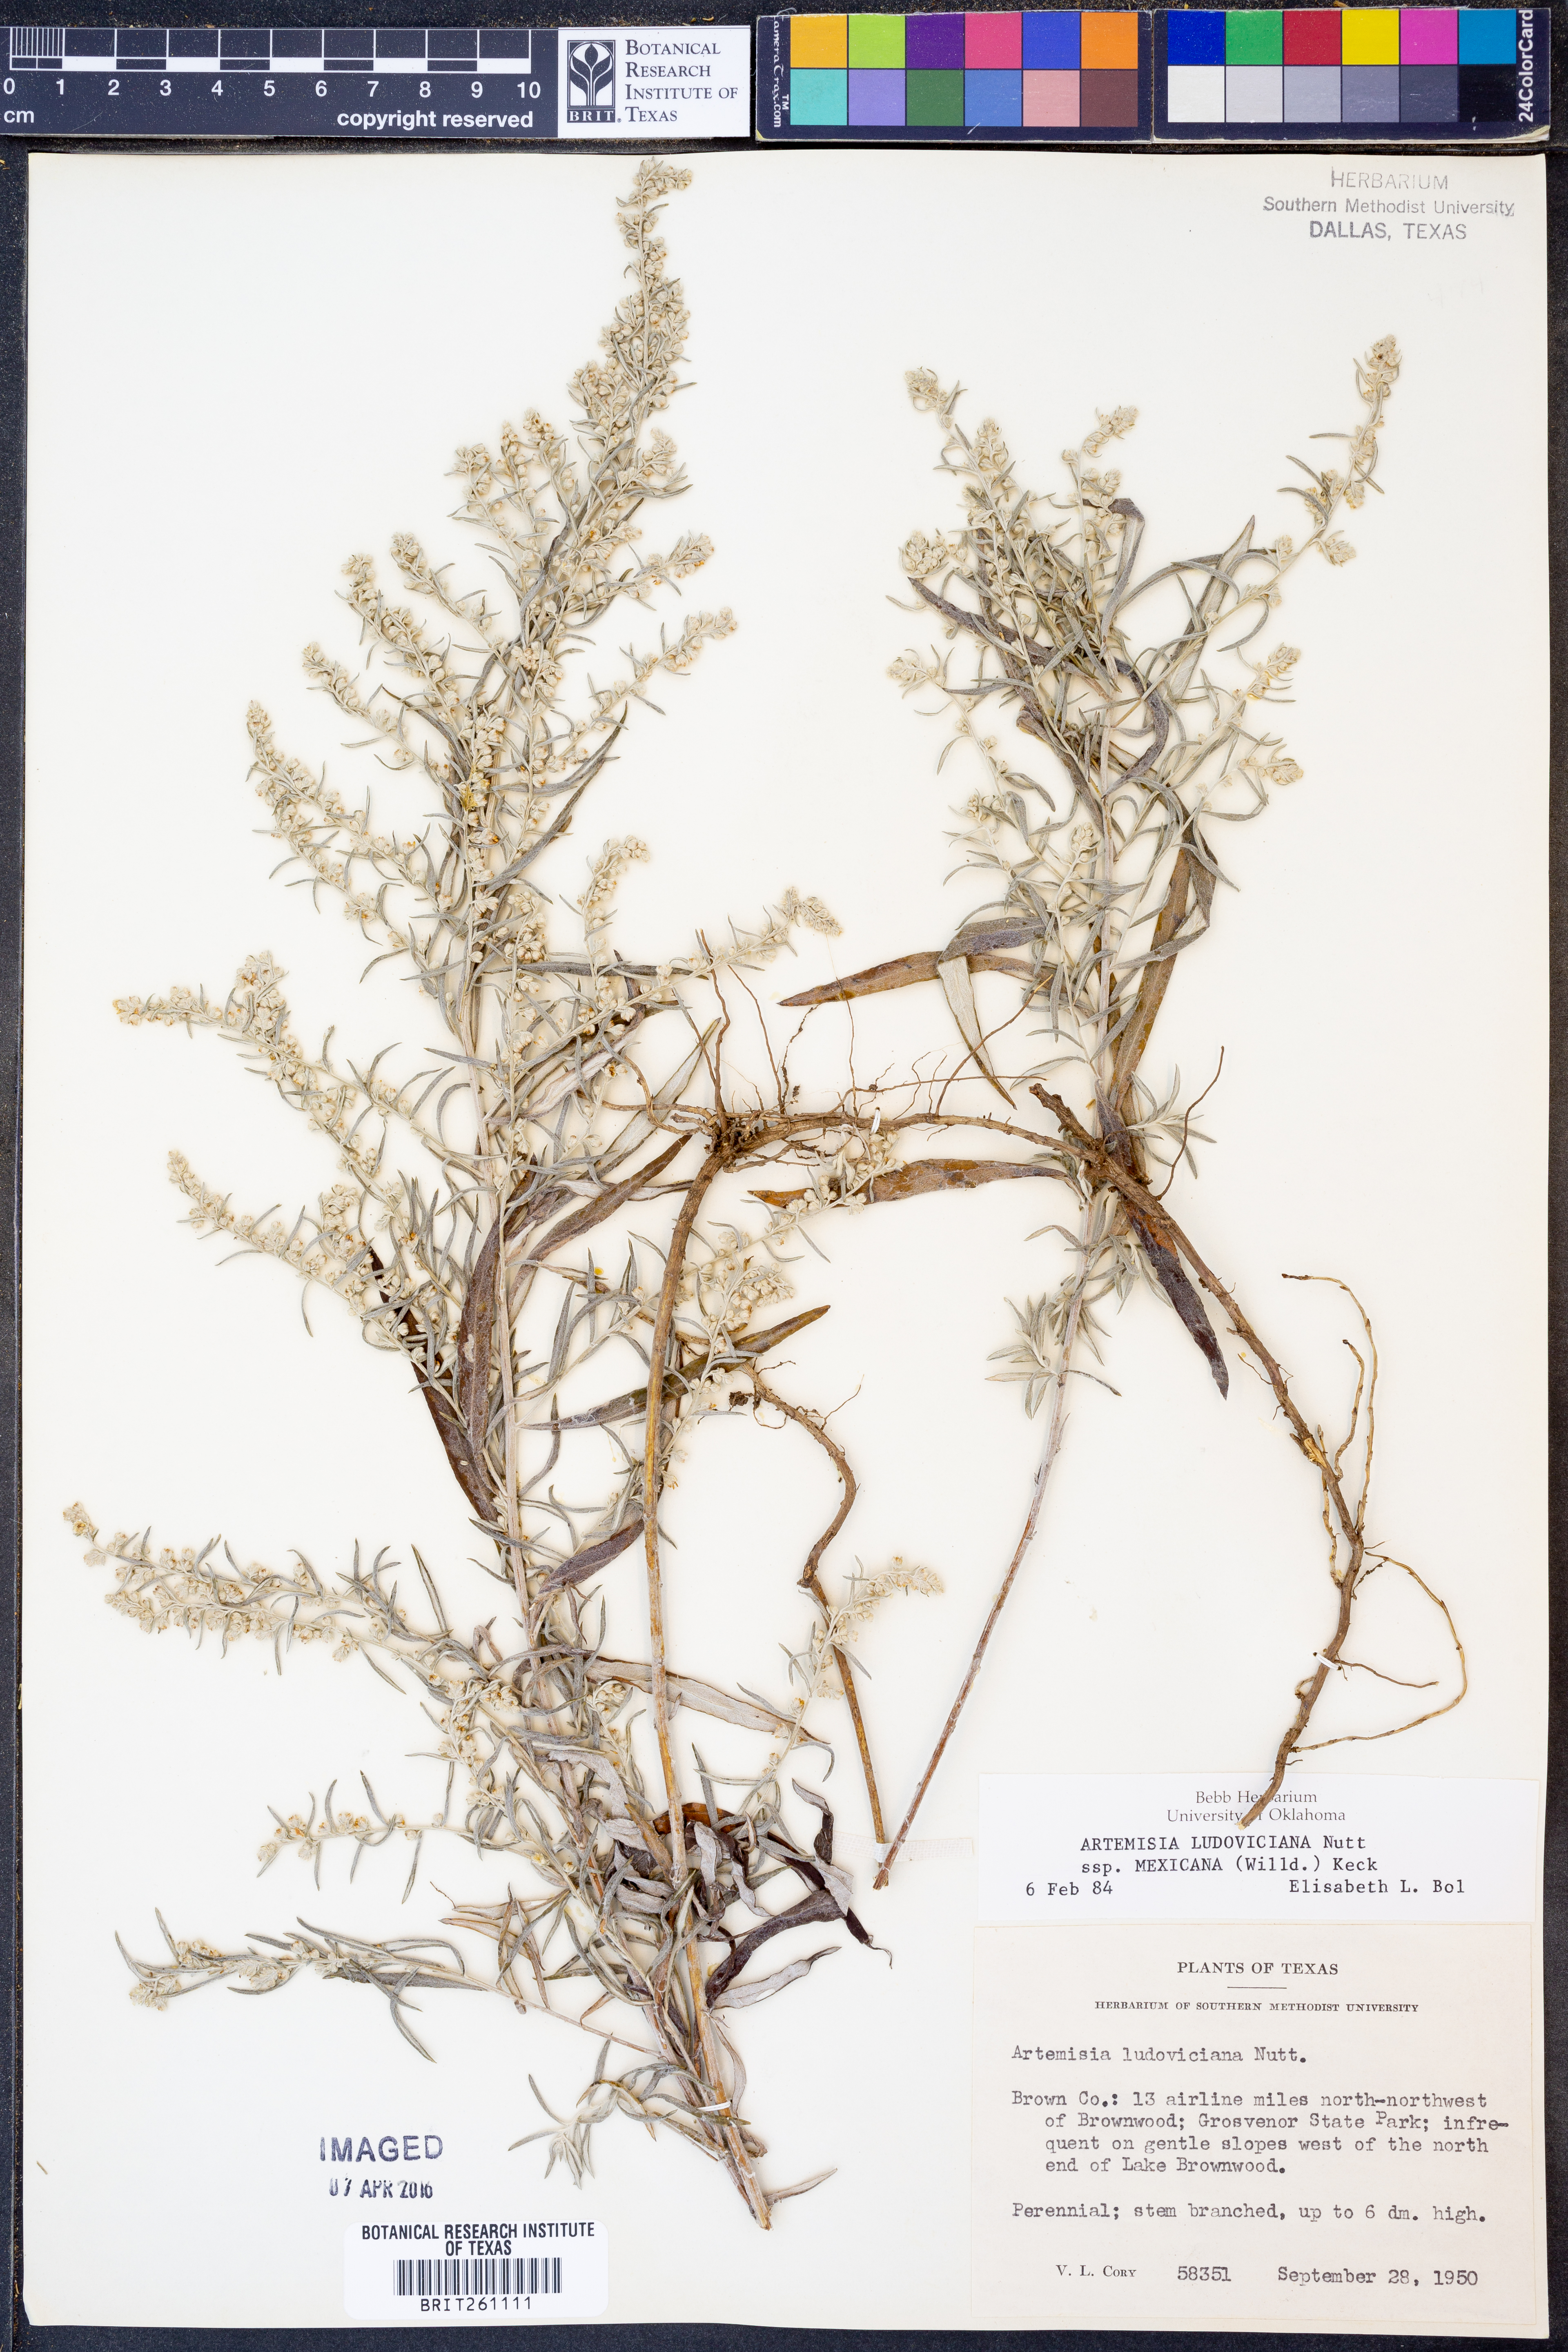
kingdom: Plantae
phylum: Tracheophyta
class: Magnoliopsida
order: Asterales
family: Asteraceae
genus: Artemisia
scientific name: Artemisia ludoviciana
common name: Western mugwort
